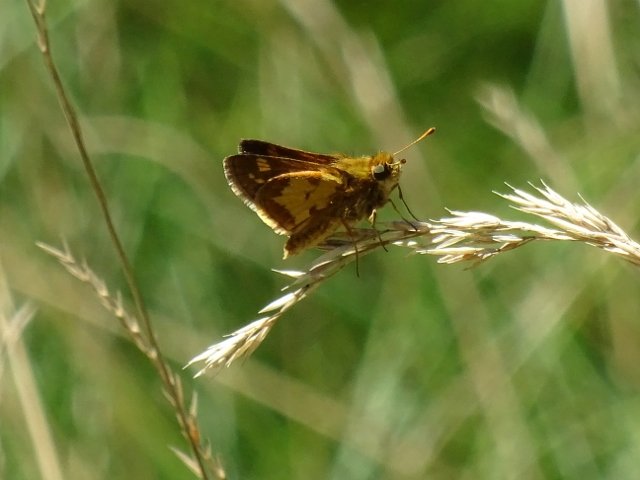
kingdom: Animalia
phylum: Arthropoda
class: Insecta
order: Lepidoptera
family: Hesperiidae
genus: Polites
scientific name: Polites coras
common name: Peck's Skipper
